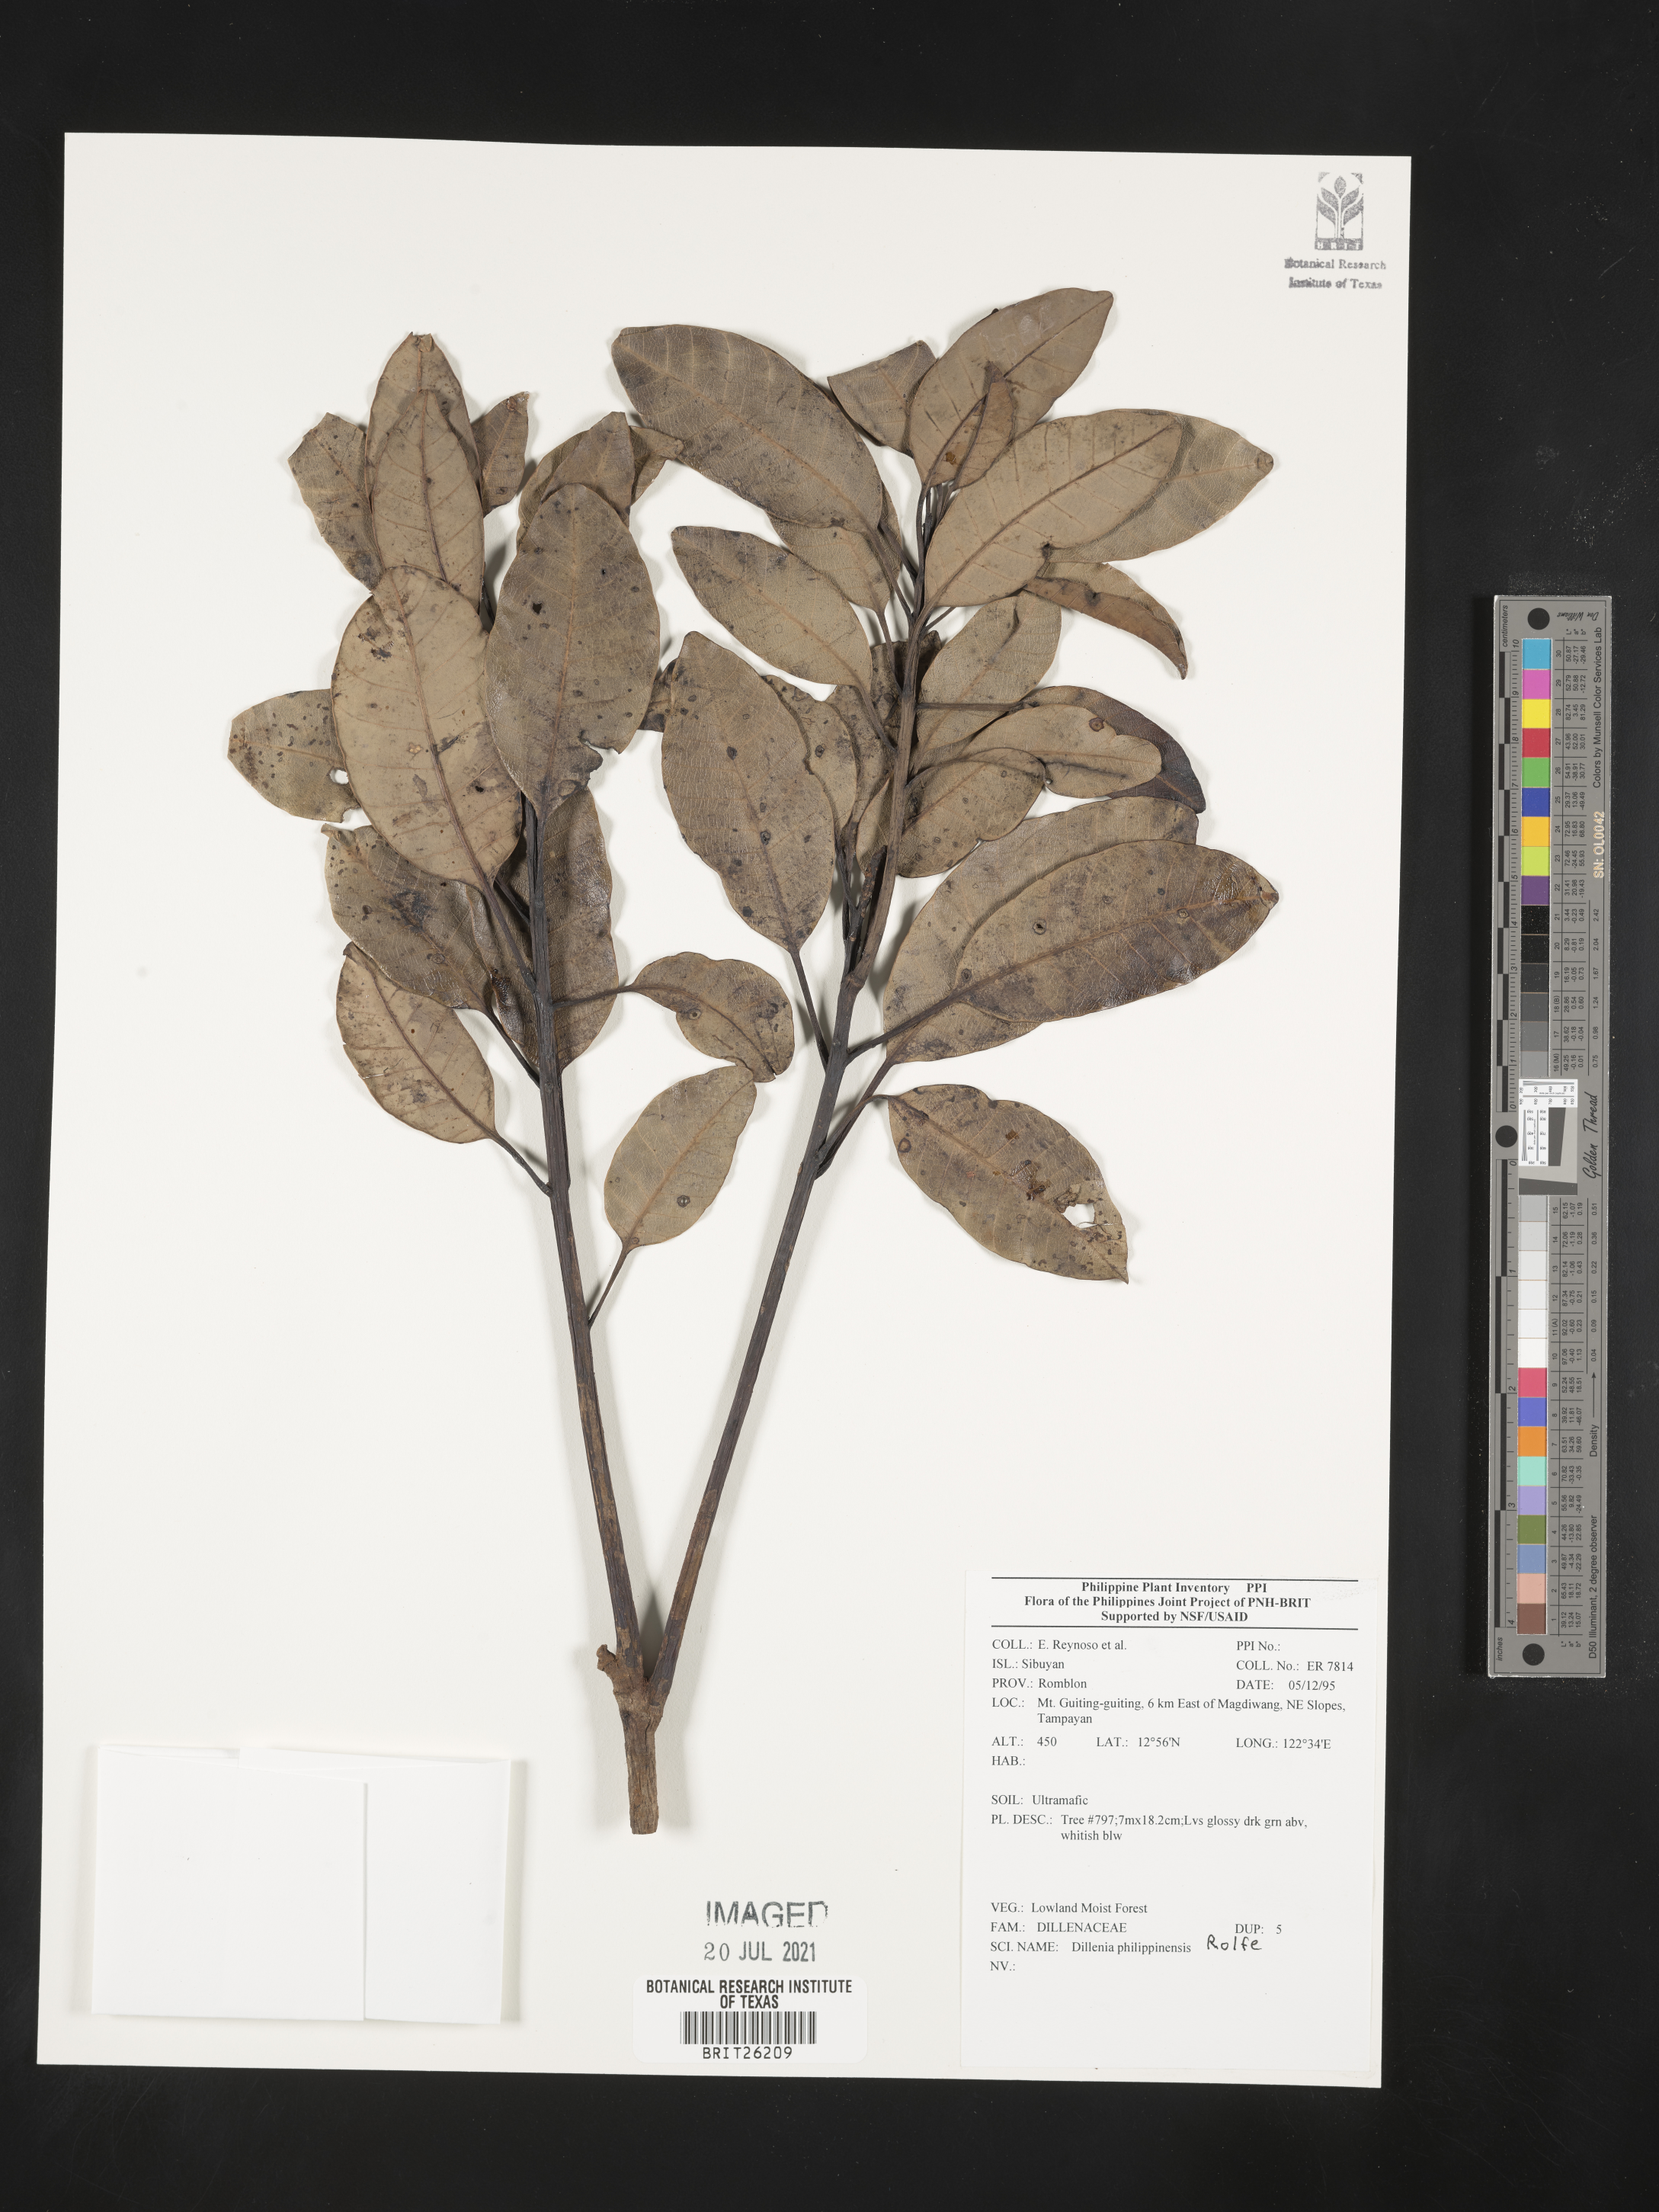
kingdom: Plantae
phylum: Tracheophyta
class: Magnoliopsida
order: Dilleniales
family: Dilleniaceae
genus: Dillenia
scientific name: Dillenia philippinensis
